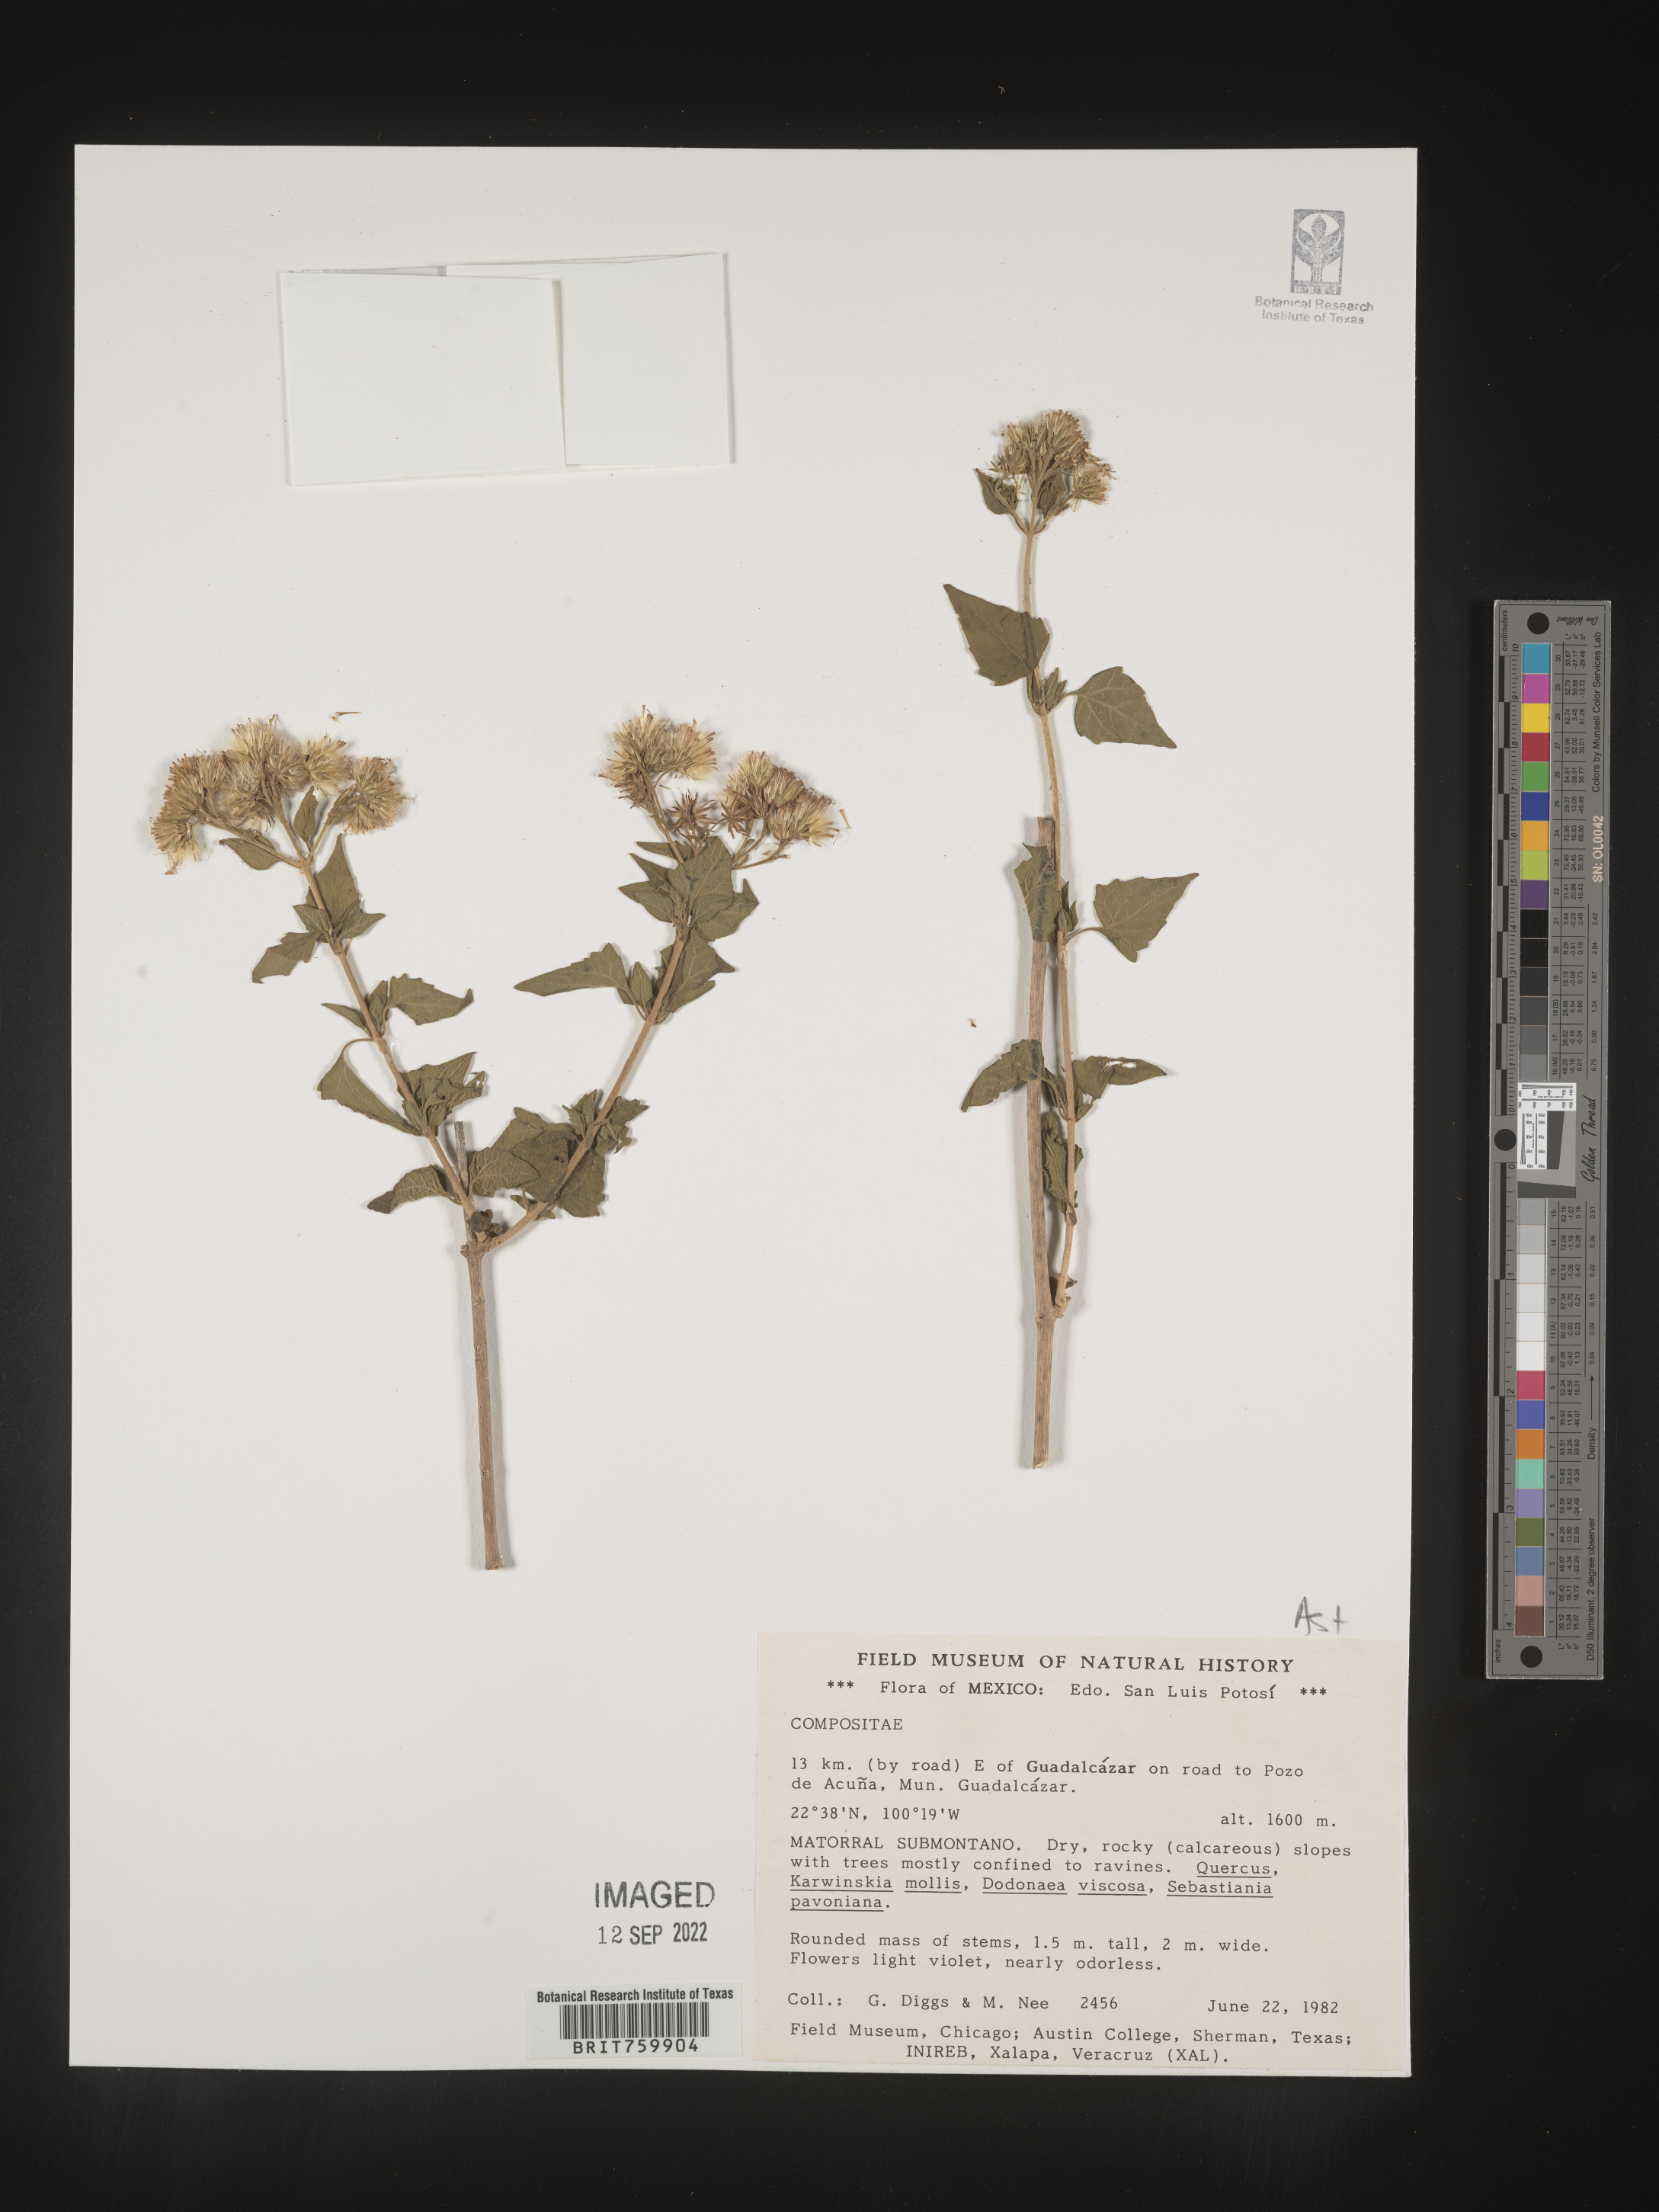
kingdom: Plantae
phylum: Tracheophyta
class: Magnoliopsida
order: Asterales
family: Asteraceae
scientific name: Asteraceae
